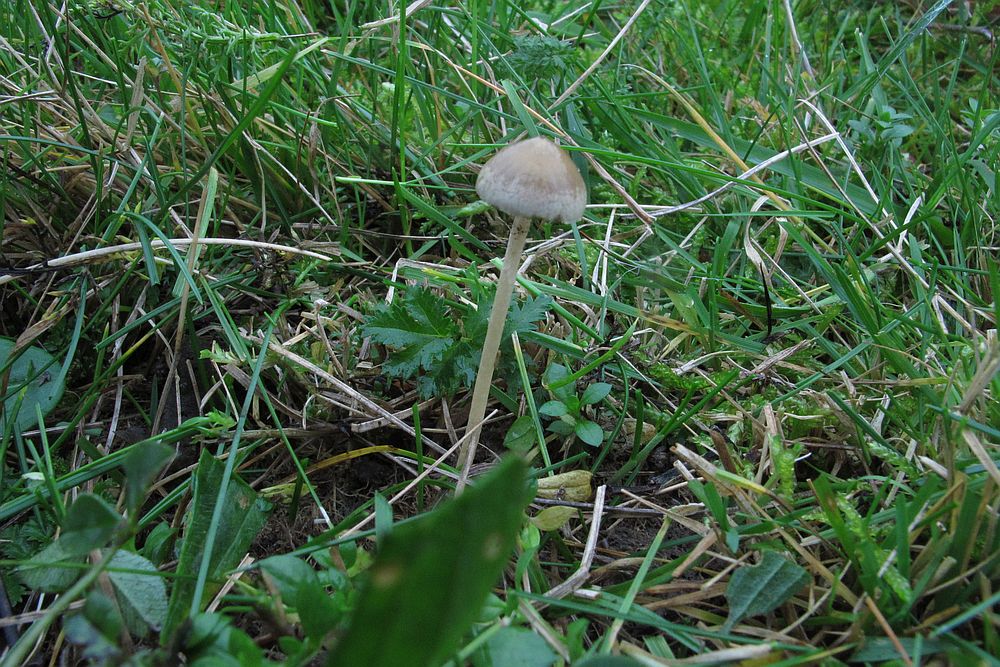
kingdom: Fungi
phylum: Basidiomycota
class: Agaricomycetes
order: Agaricales
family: Strophariaceae
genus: Protostropharia
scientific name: Protostropharia semiglobata
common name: halvkugleformet bredblad
